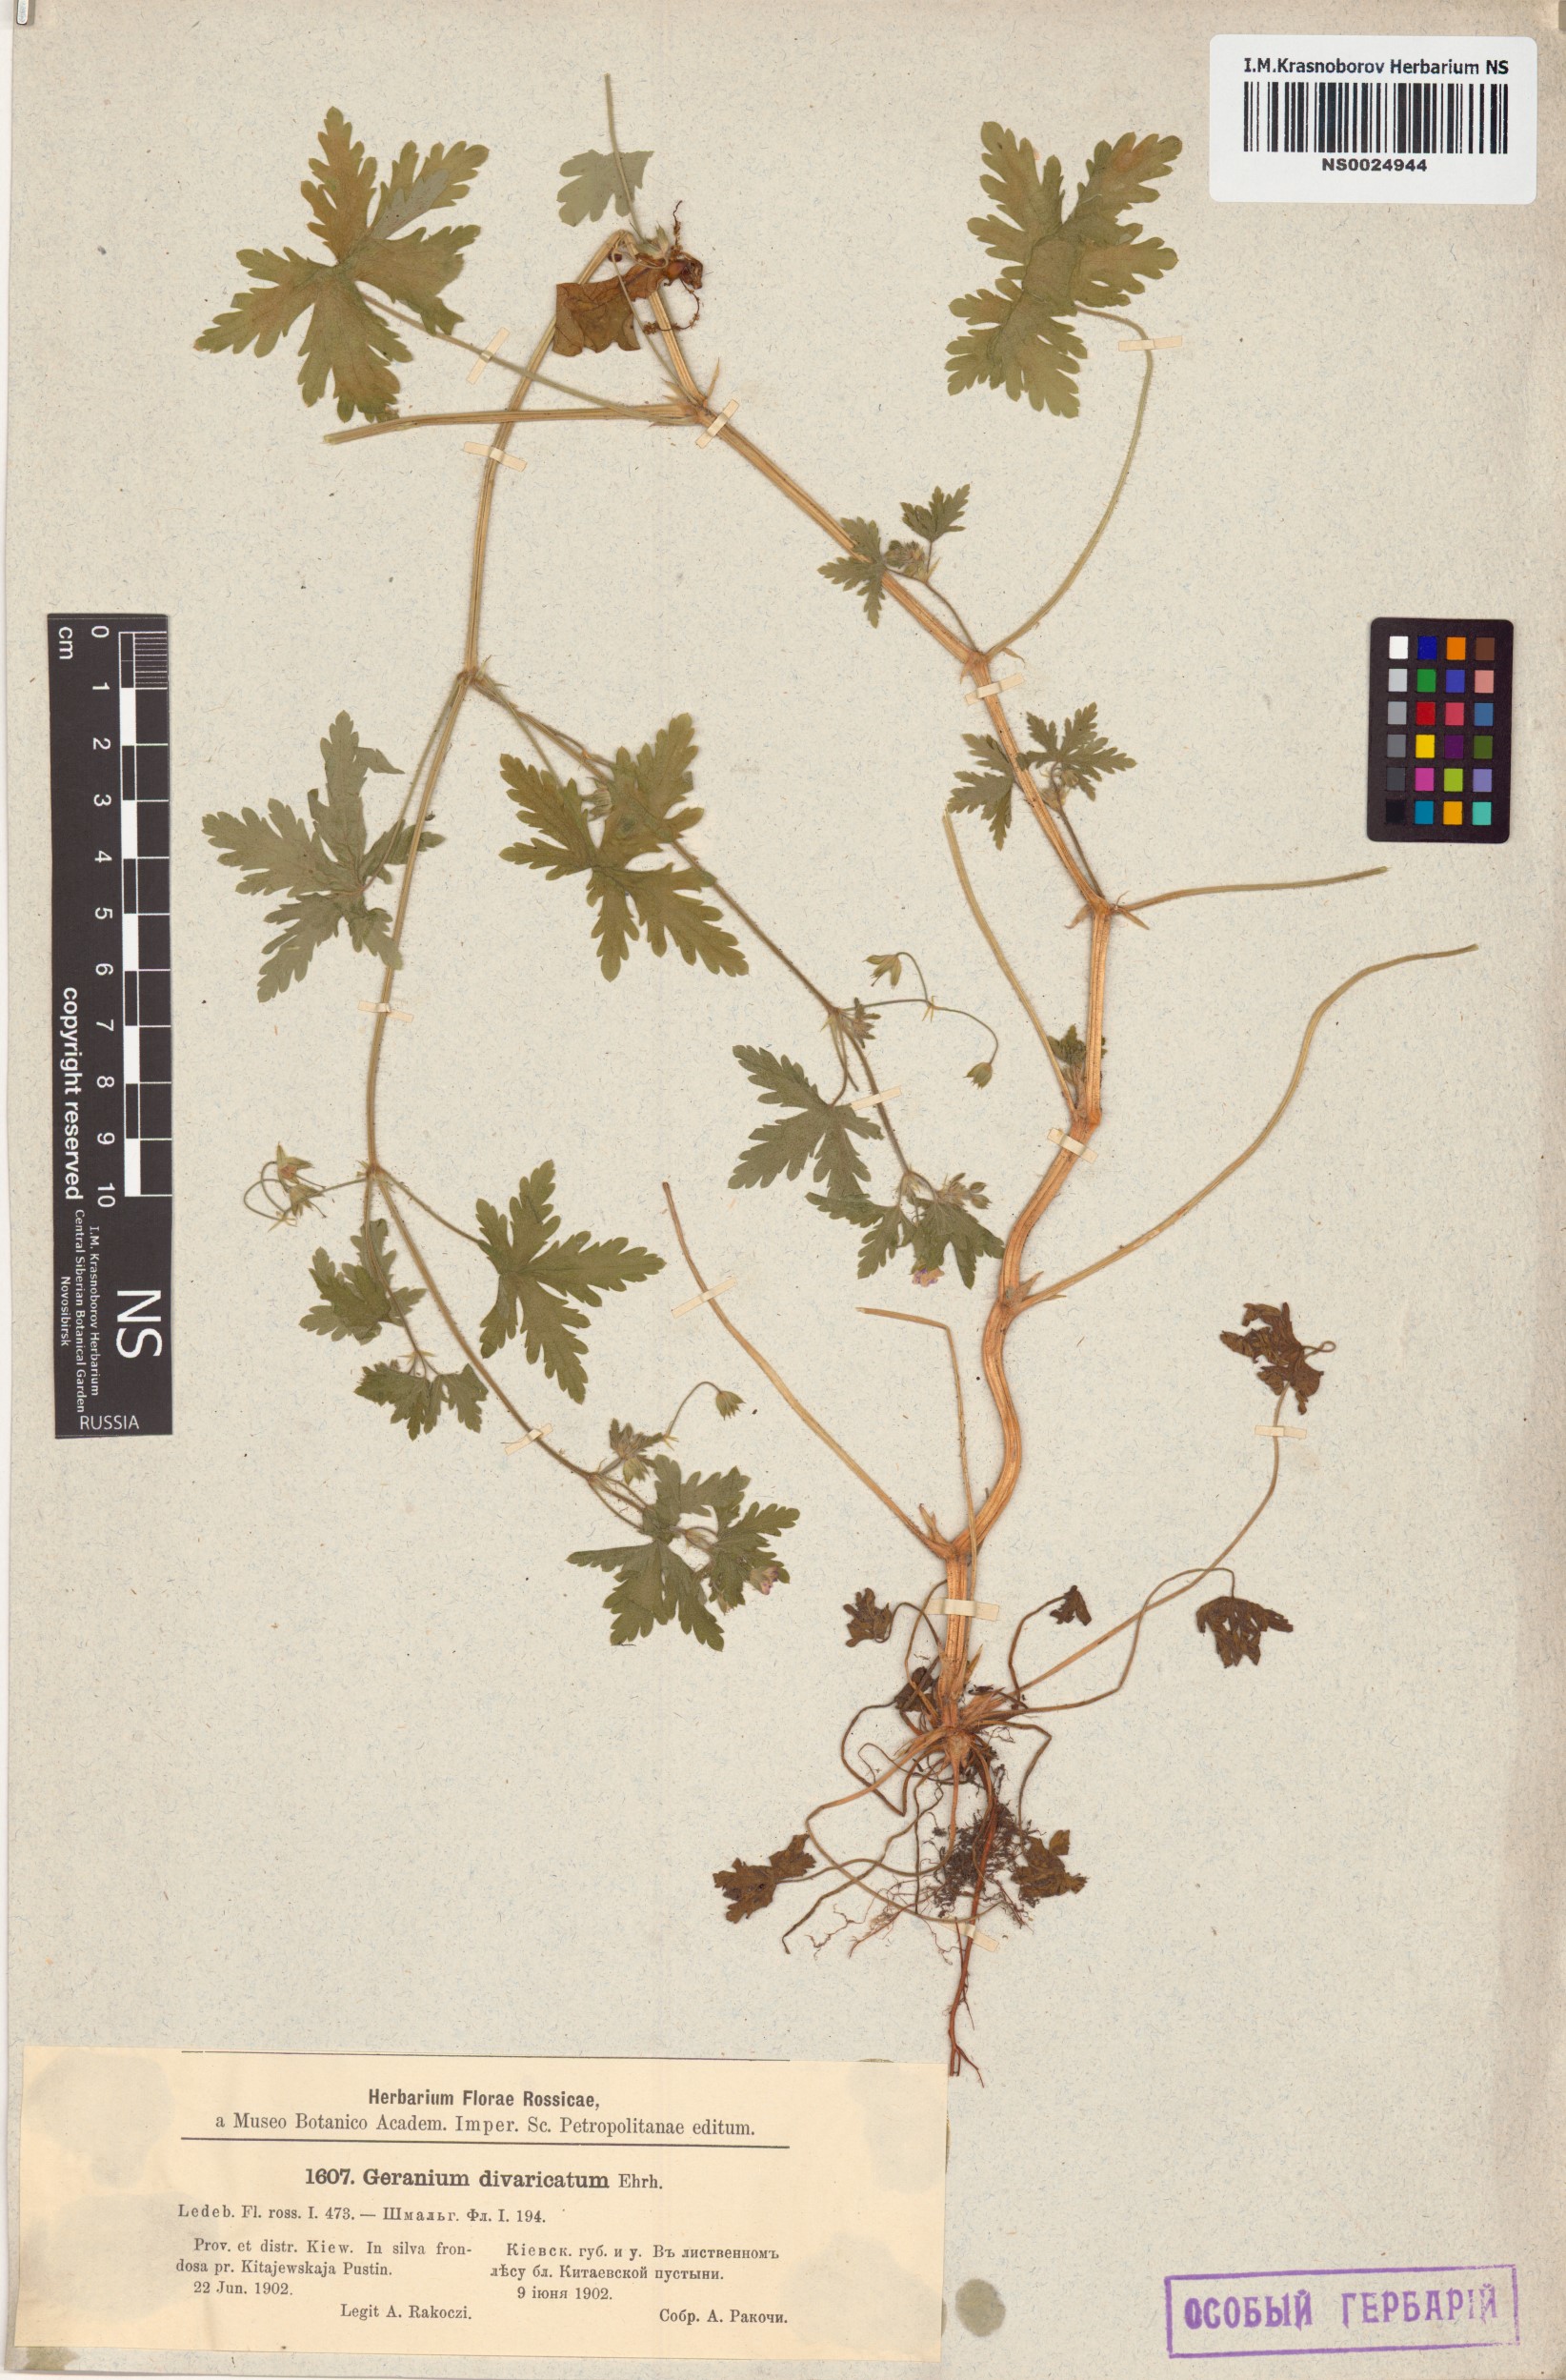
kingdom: Plantae
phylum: Tracheophyta
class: Magnoliopsida
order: Geraniales
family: Geraniaceae
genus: Geranium
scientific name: Geranium divaricatum
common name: Spreading crane's-bill
